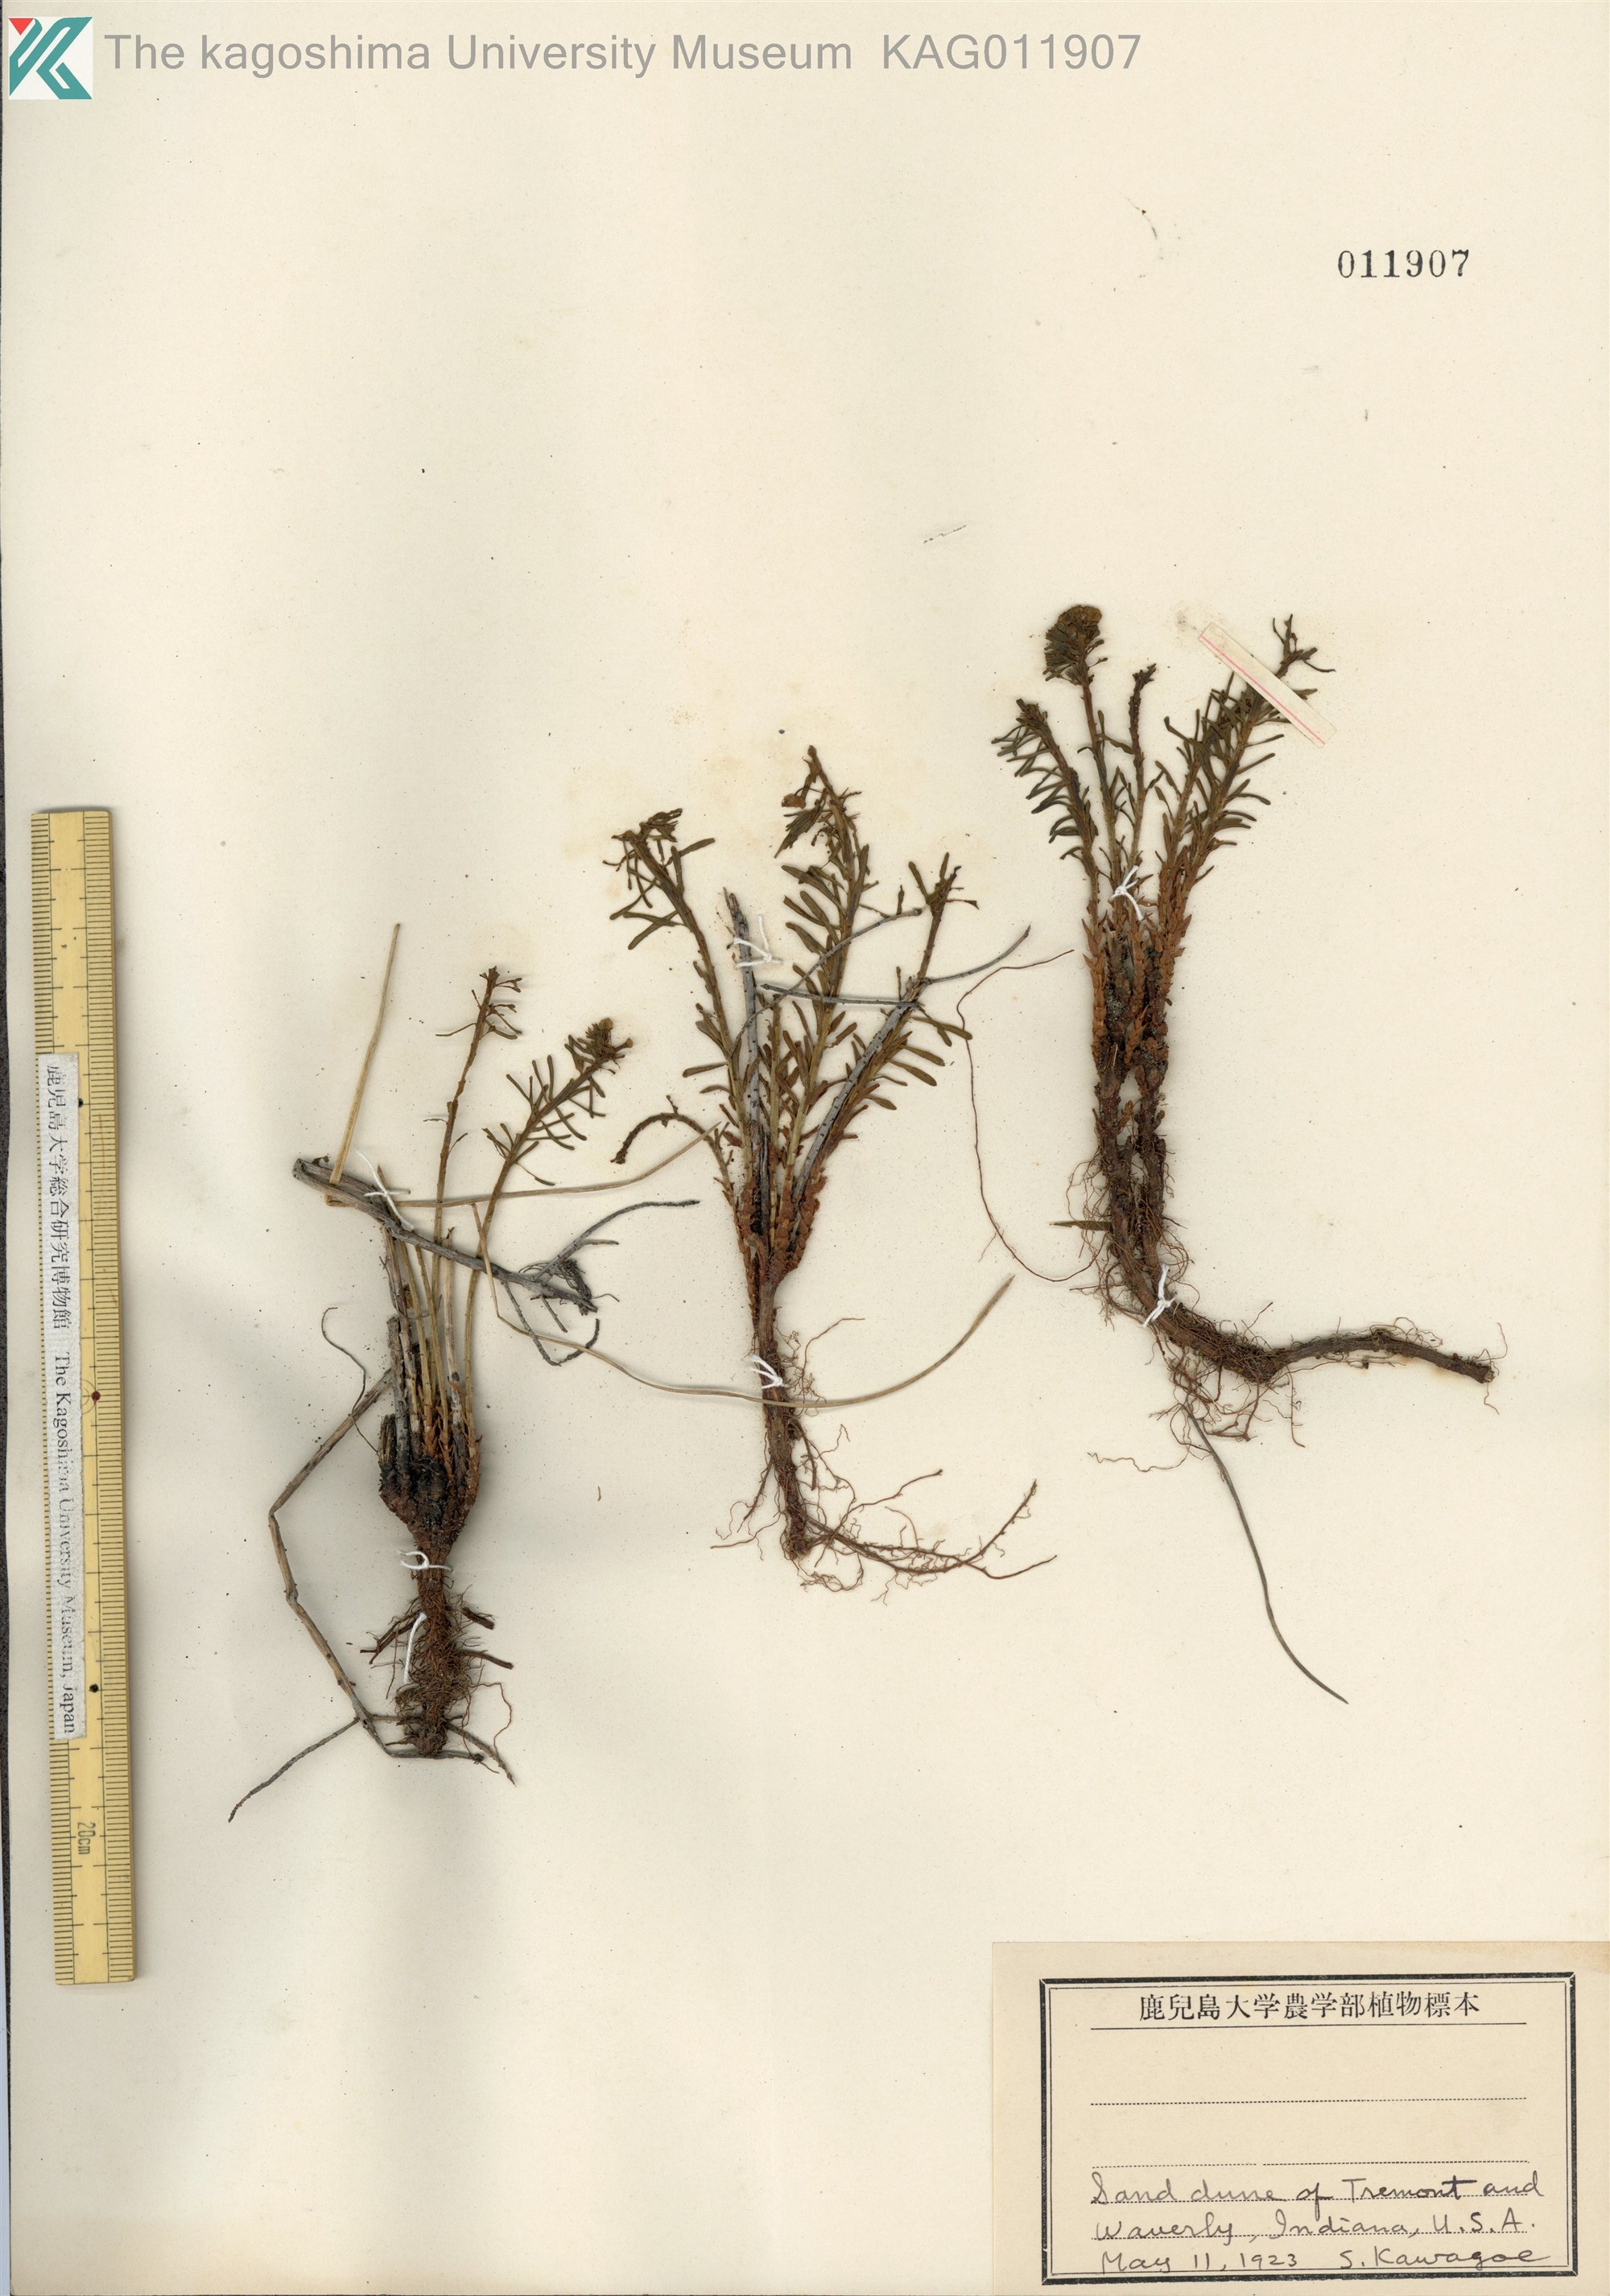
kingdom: Plantae
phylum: Tracheophyta
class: Magnoliopsida
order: Malpighiales
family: Euphorbiaceae
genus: Euphorbia
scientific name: Euphorbia cyparissias
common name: Cypress spurge
